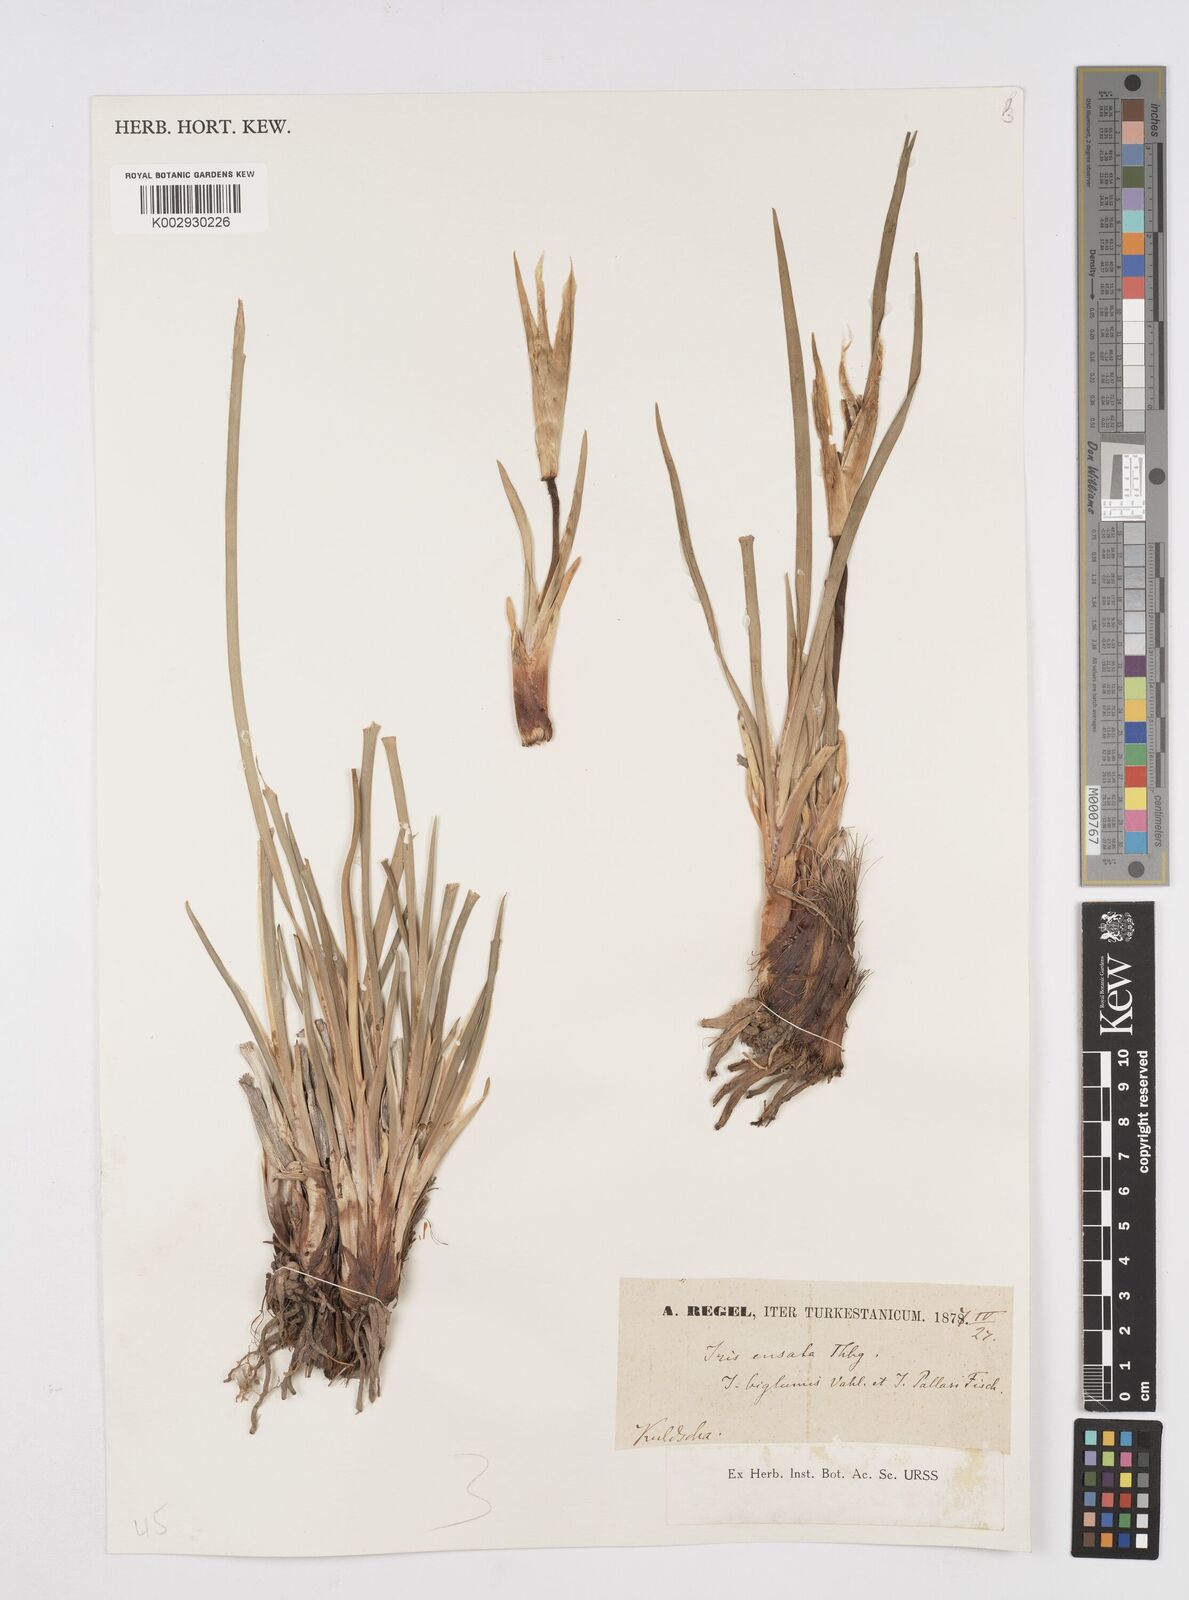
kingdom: Plantae
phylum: Tracheophyta
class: Liliopsida
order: Asparagales
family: Iridaceae
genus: Iris
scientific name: Iris ensata
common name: Beaked iris
